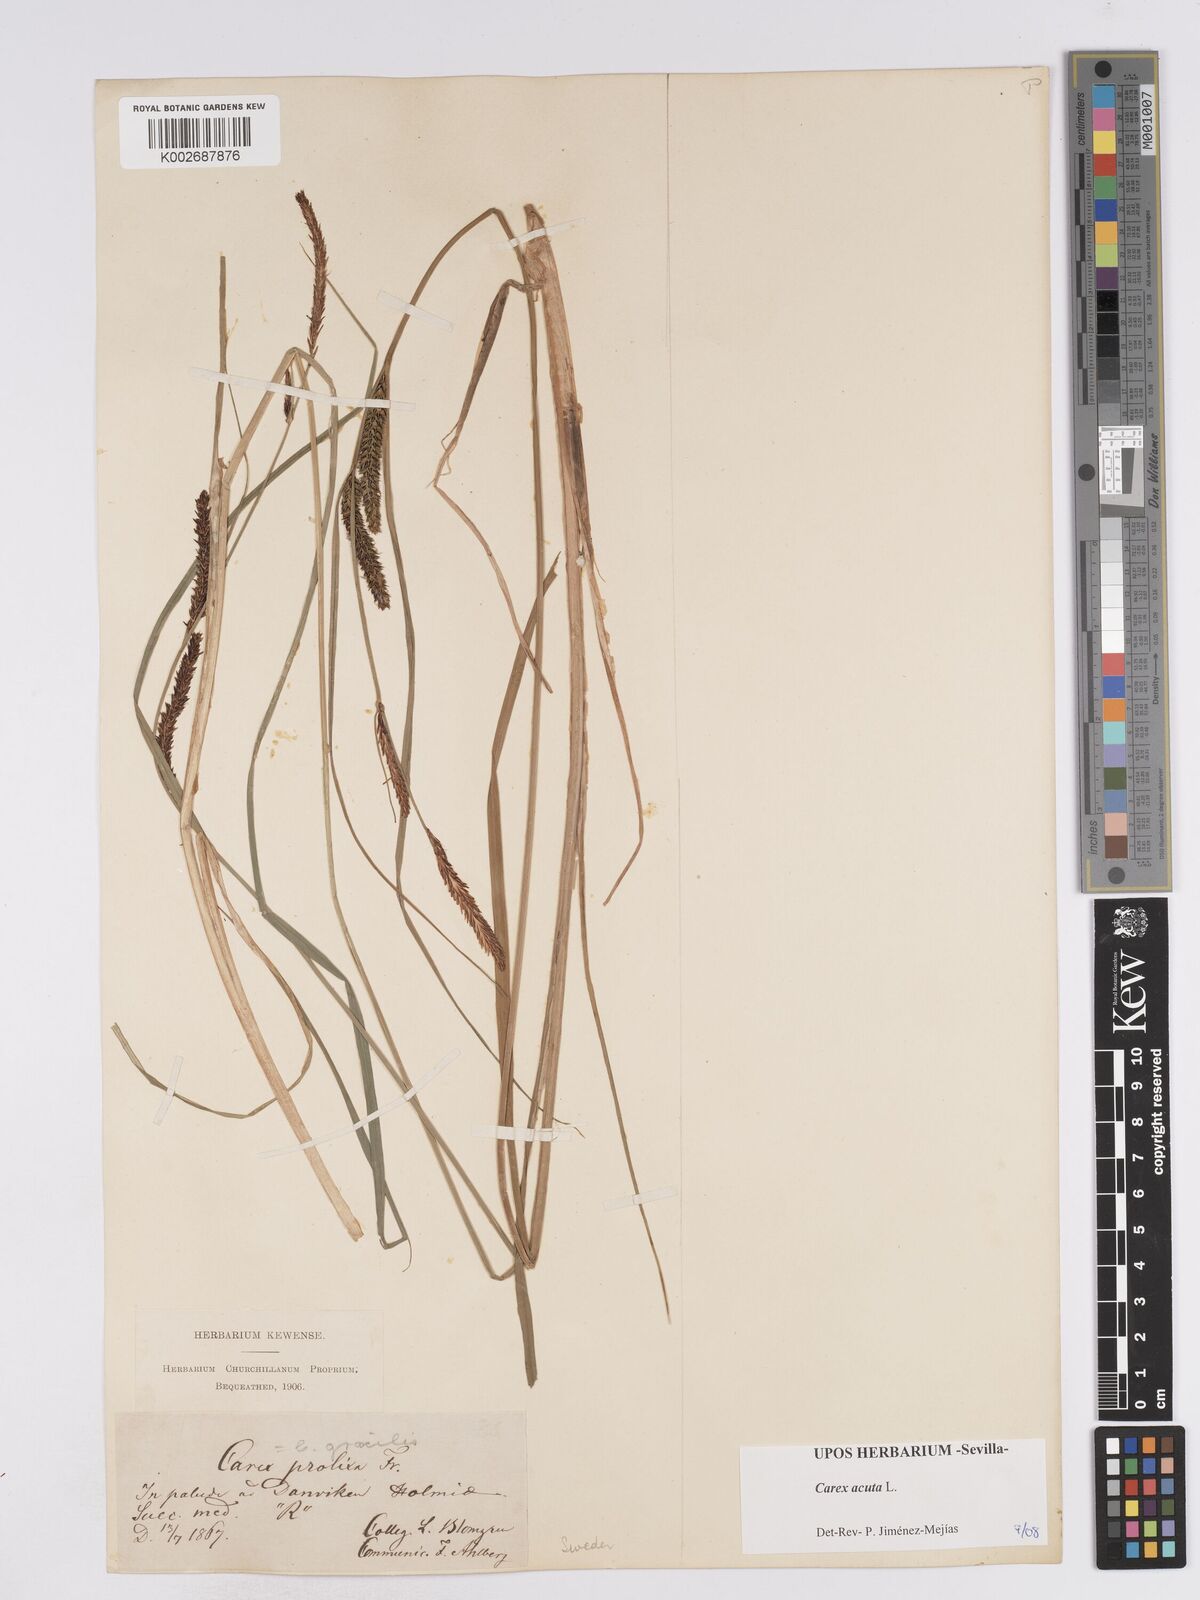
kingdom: Plantae
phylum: Tracheophyta
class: Liliopsida
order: Poales
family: Cyperaceae
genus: Carex
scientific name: Carex acuta
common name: Slender tufted-sedge
